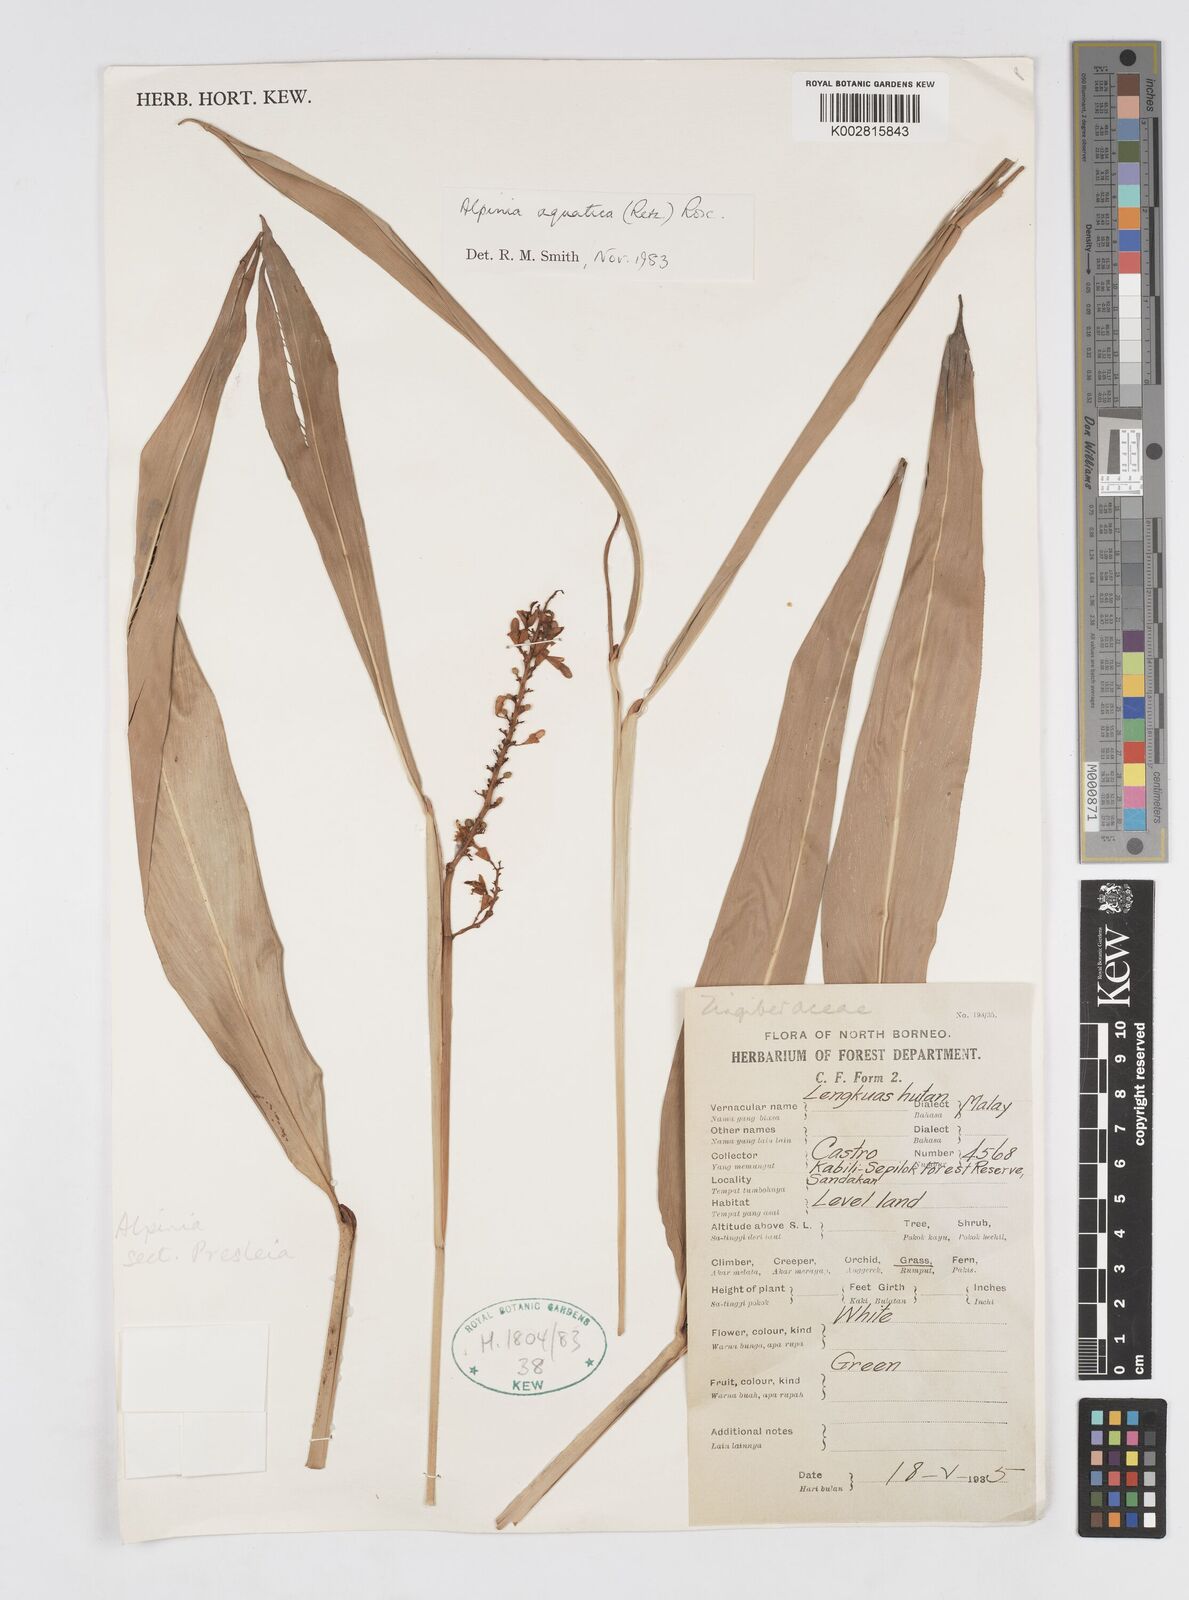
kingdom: Plantae
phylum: Tracheophyta
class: Liliopsida
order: Zingiberales
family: Zingiberaceae
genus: Alpinia
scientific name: Alpinia aquatica
